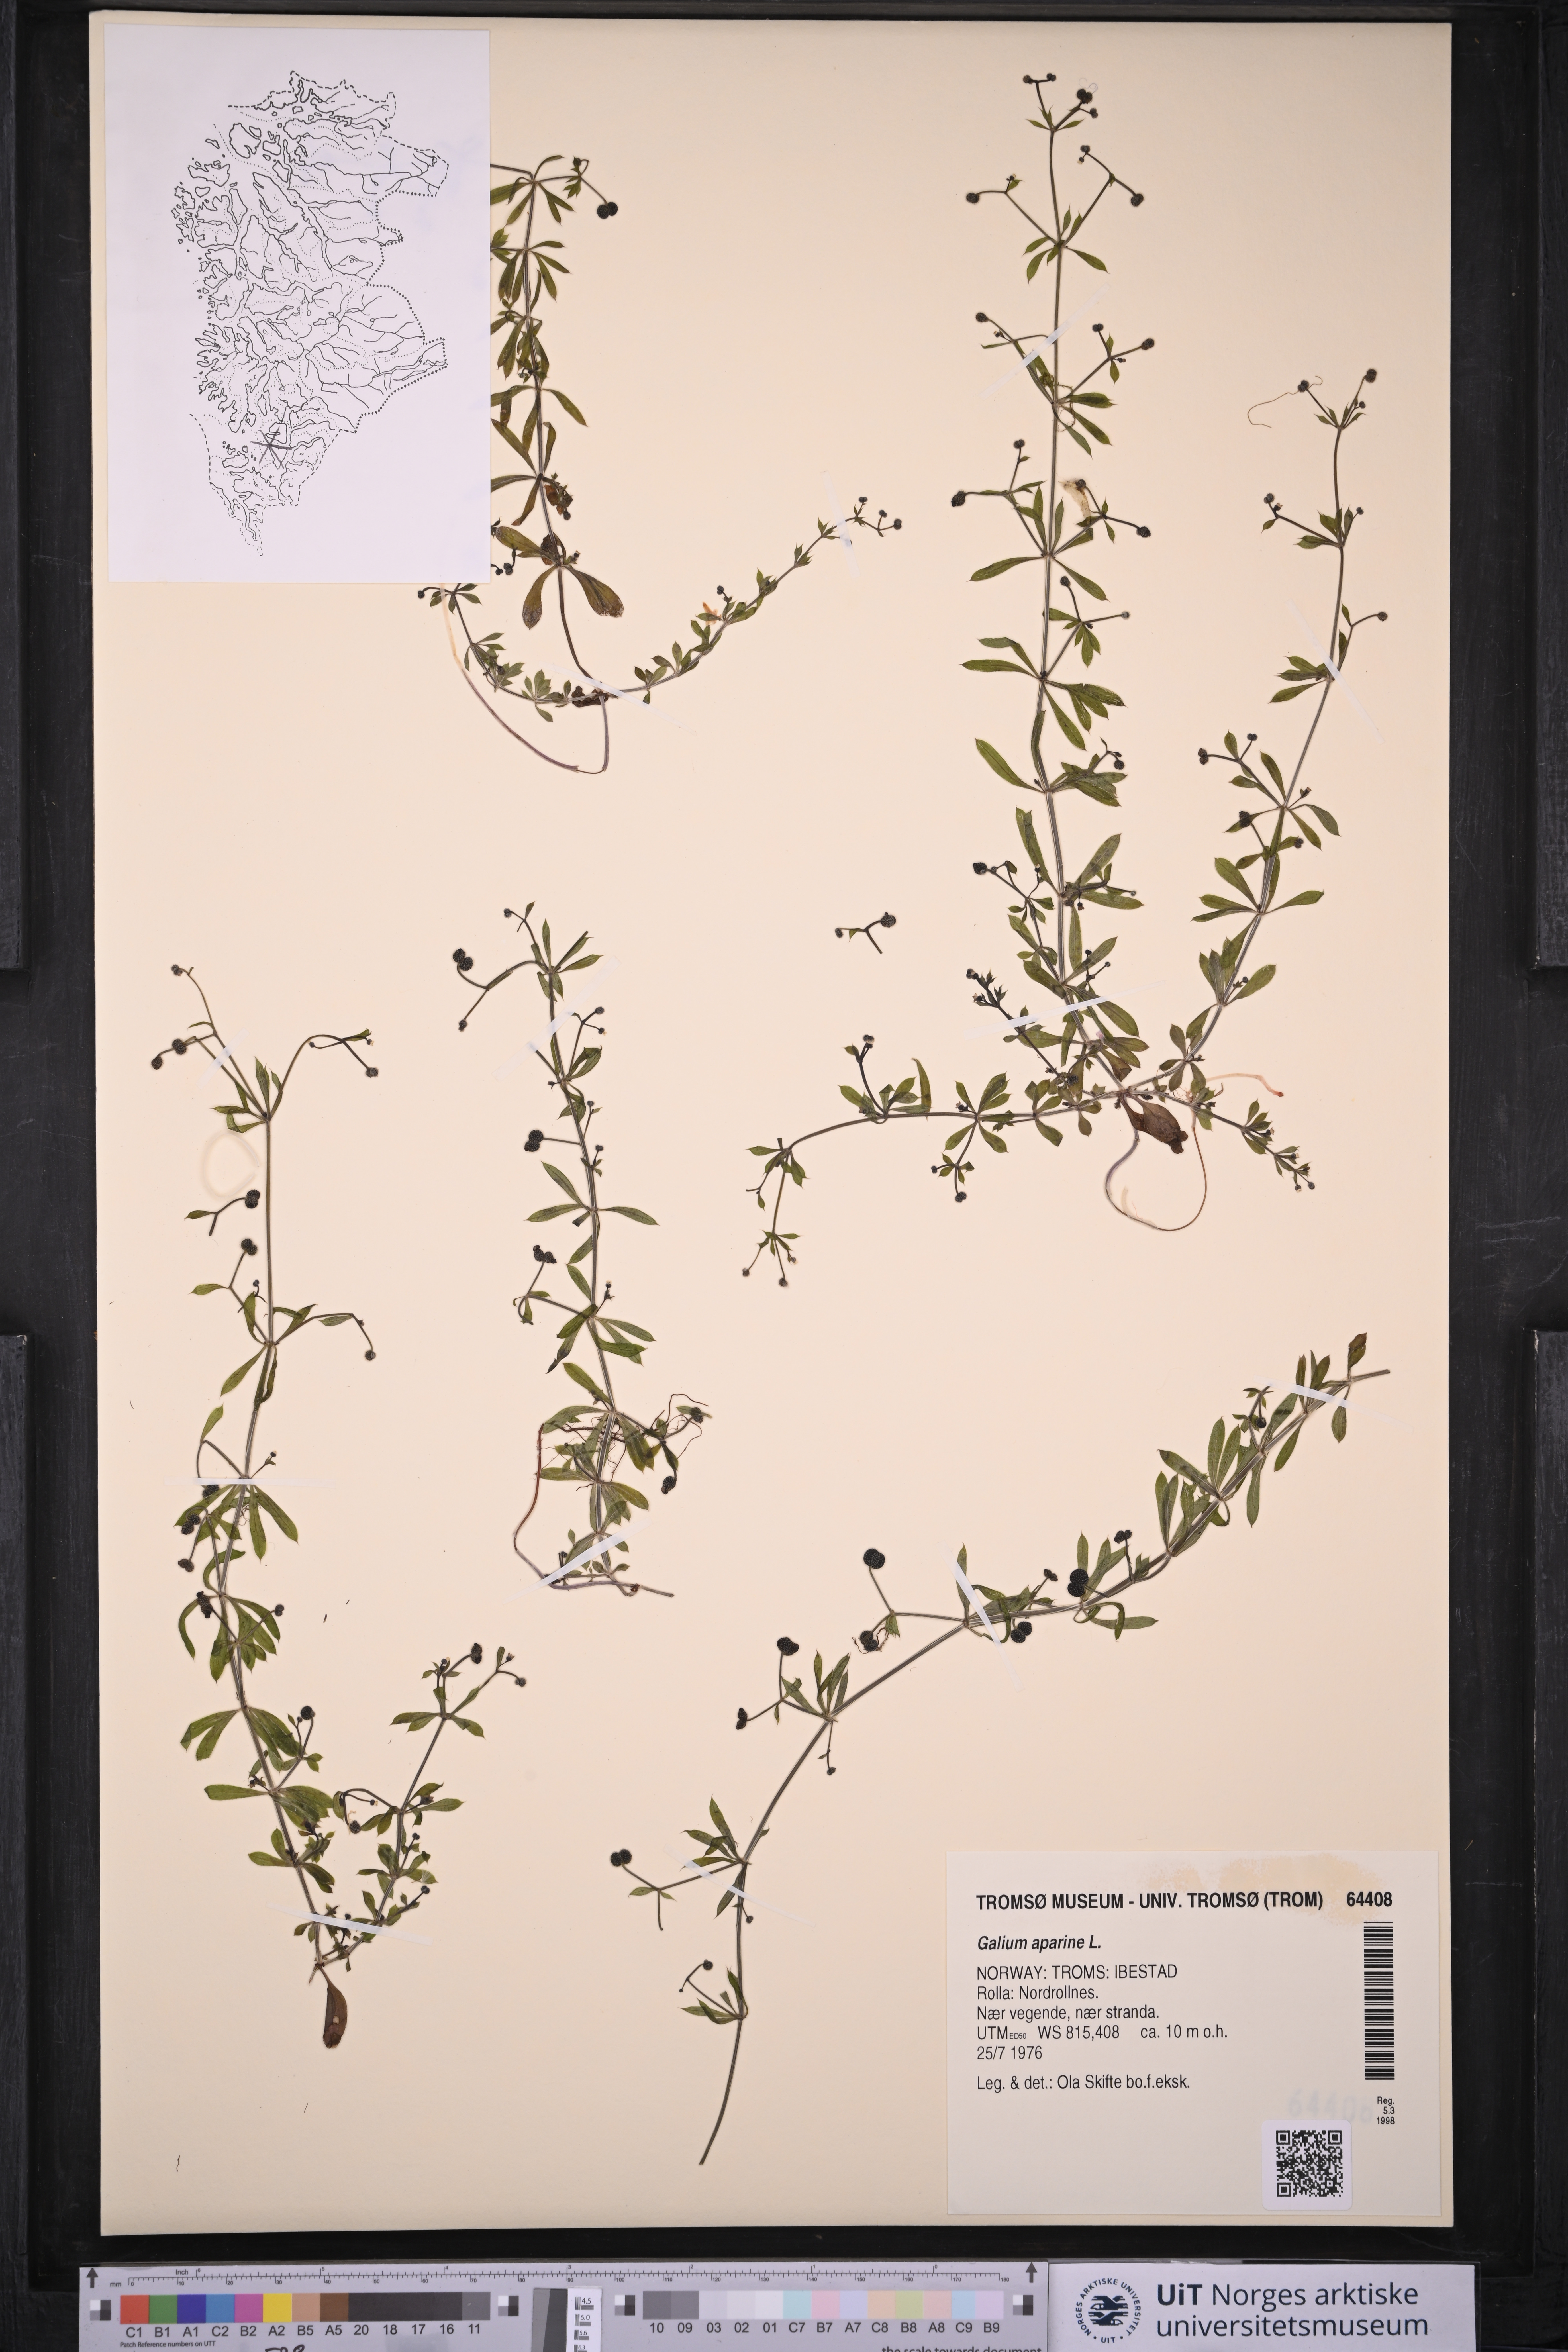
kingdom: Plantae
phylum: Tracheophyta
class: Magnoliopsida
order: Gentianales
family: Rubiaceae
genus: Galium
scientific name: Galium aparine
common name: Cleavers
